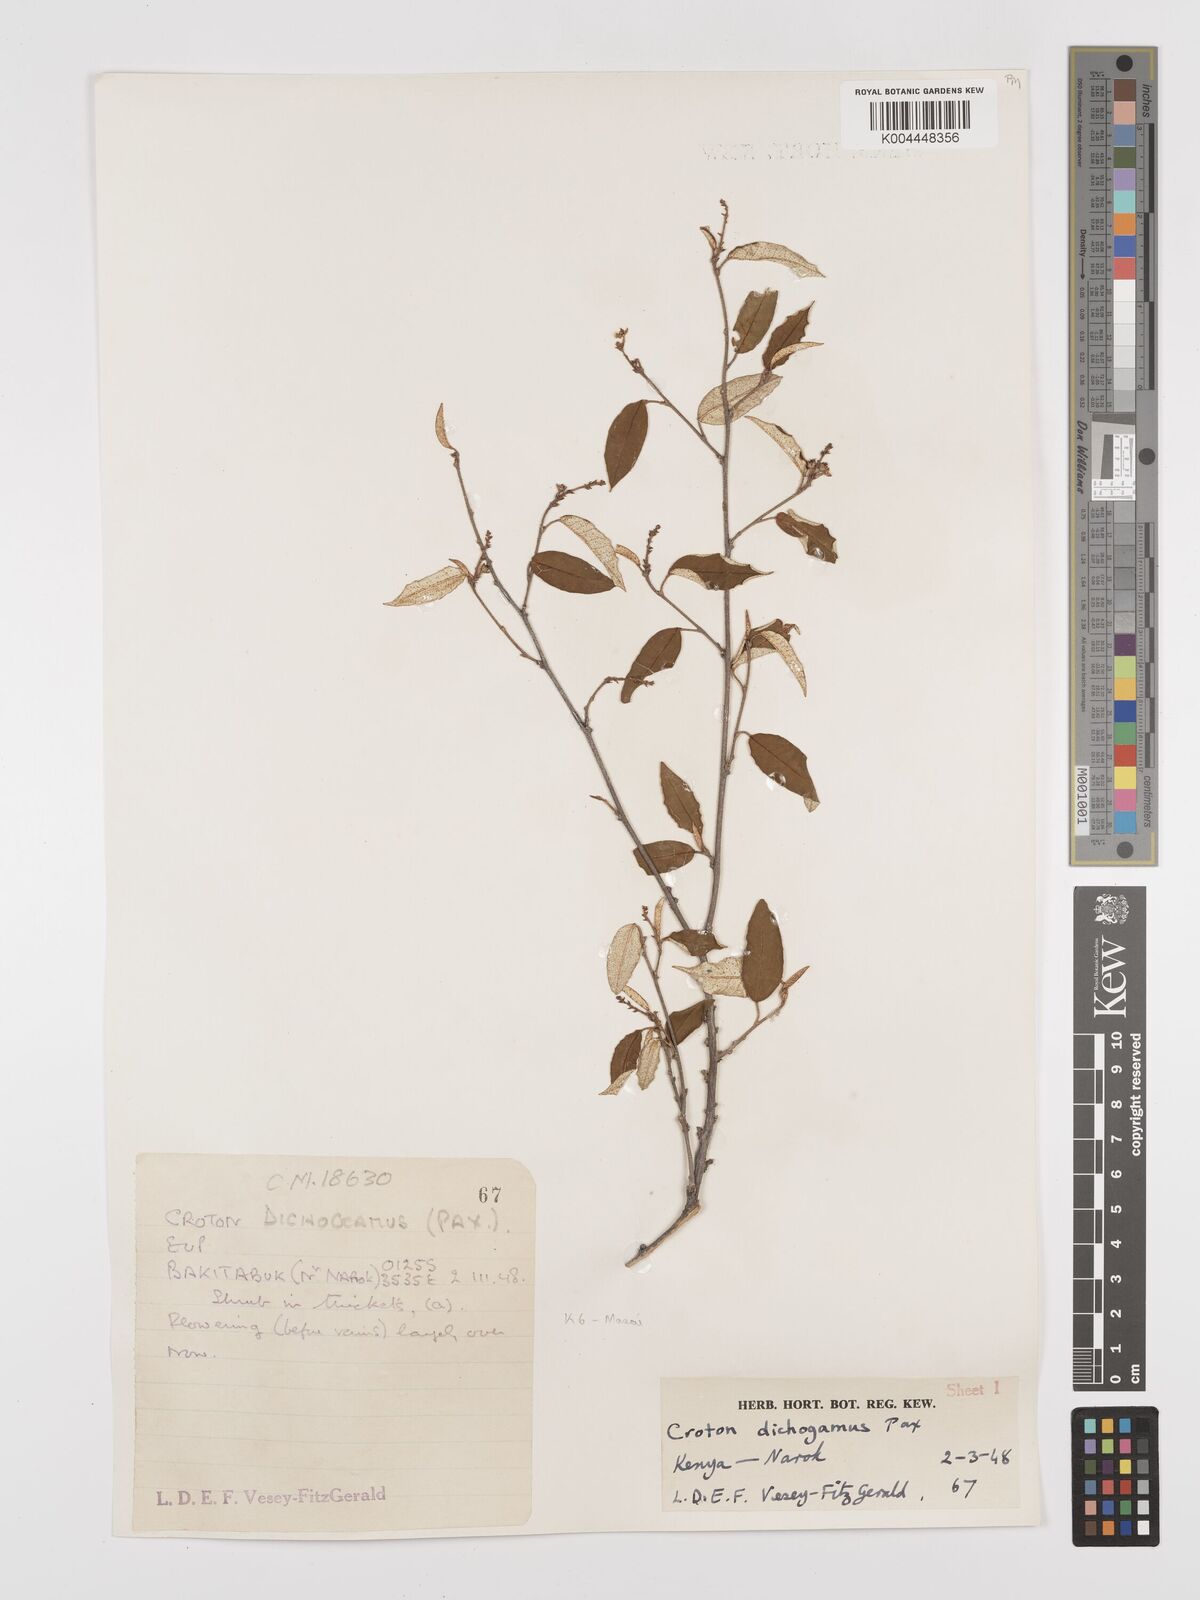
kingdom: Plantae
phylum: Tracheophyta
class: Magnoliopsida
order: Malpighiales
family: Euphorbiaceae
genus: Croton
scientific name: Croton dichogamus
